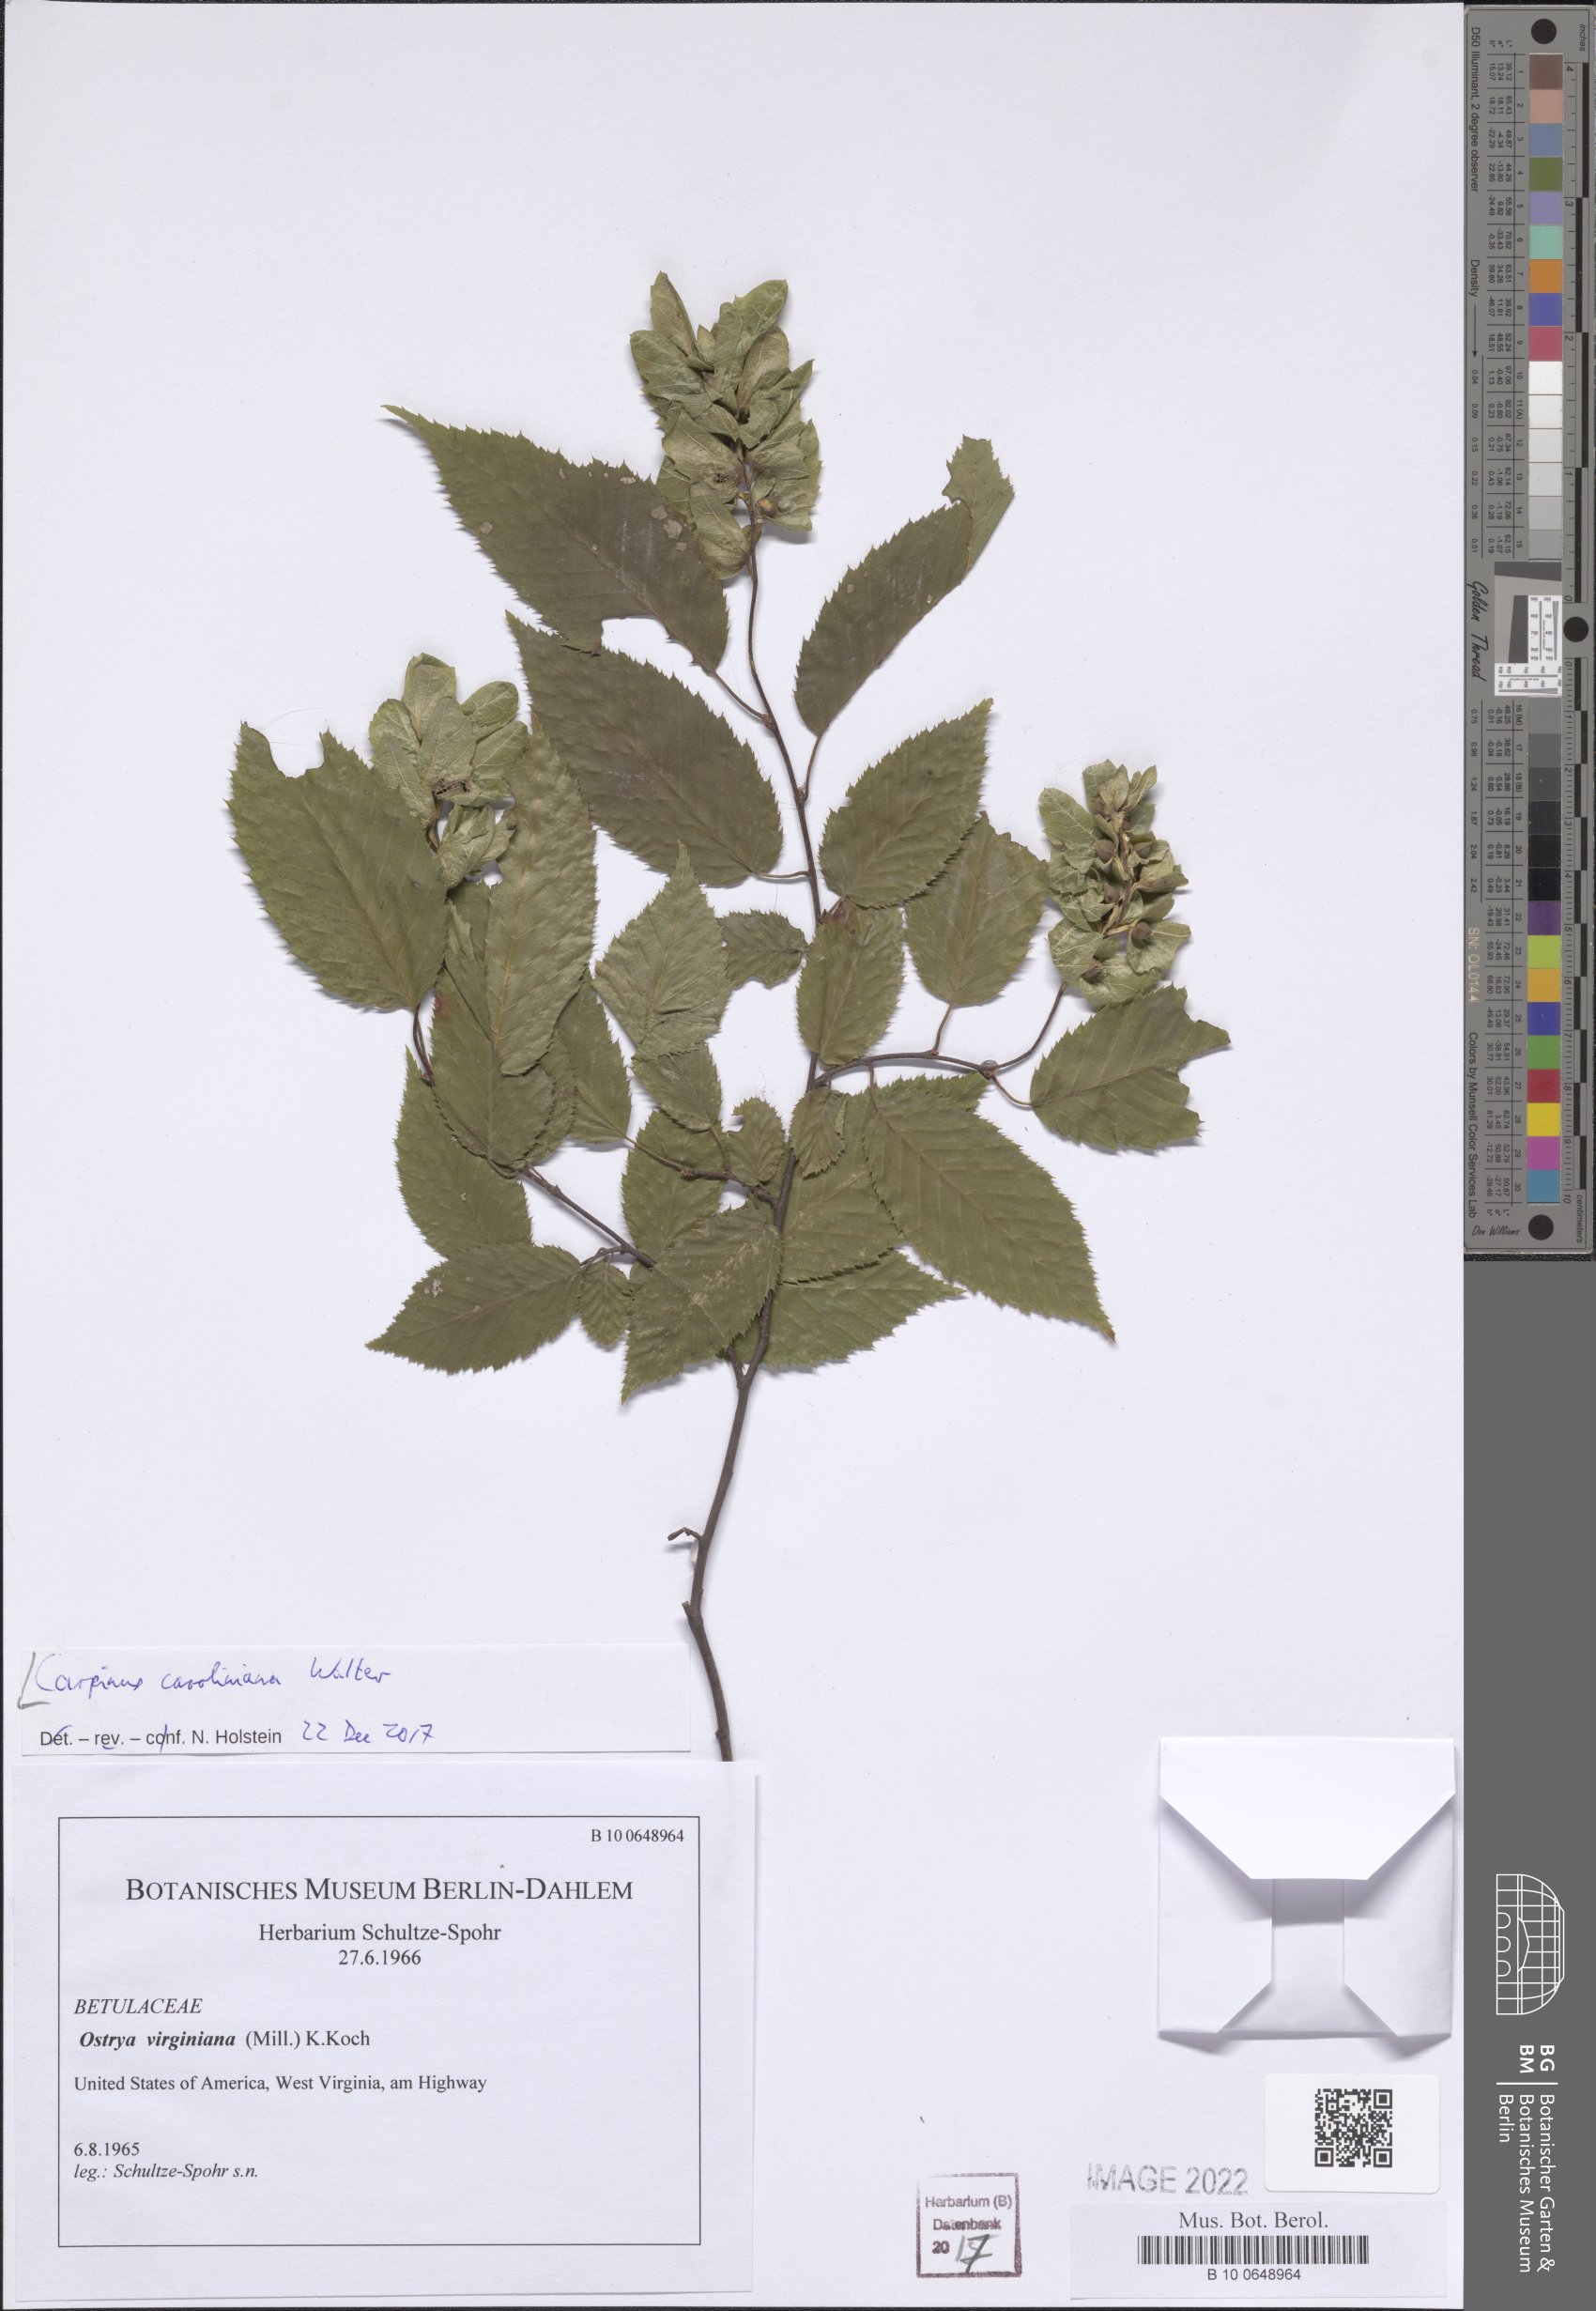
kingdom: Plantae
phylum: Tracheophyta
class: Magnoliopsida
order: Fagales
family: Betulaceae
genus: Carpinus
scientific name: Carpinus caroliniana
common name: American hornbeam
